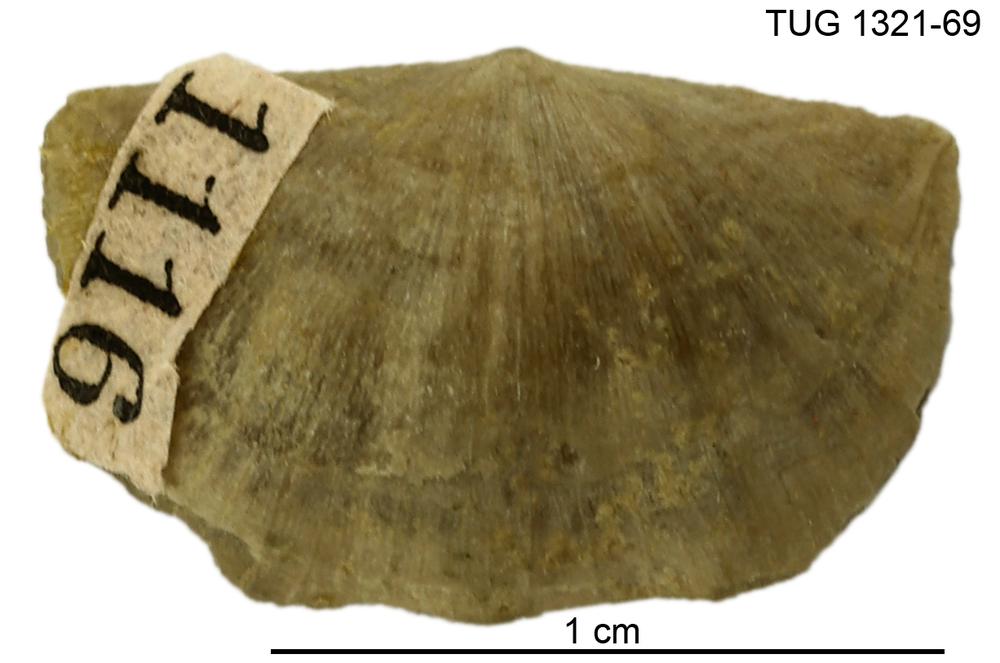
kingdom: Animalia
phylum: Brachiopoda
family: Sowerbyellidae
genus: Sowerbyella
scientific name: Sowerbyella trivia
